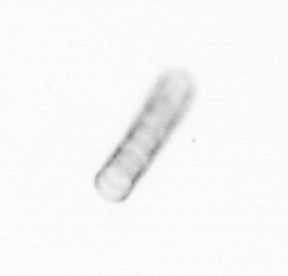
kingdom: Chromista
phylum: Ochrophyta
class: Bacillariophyceae
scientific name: Bacillariophyceae
